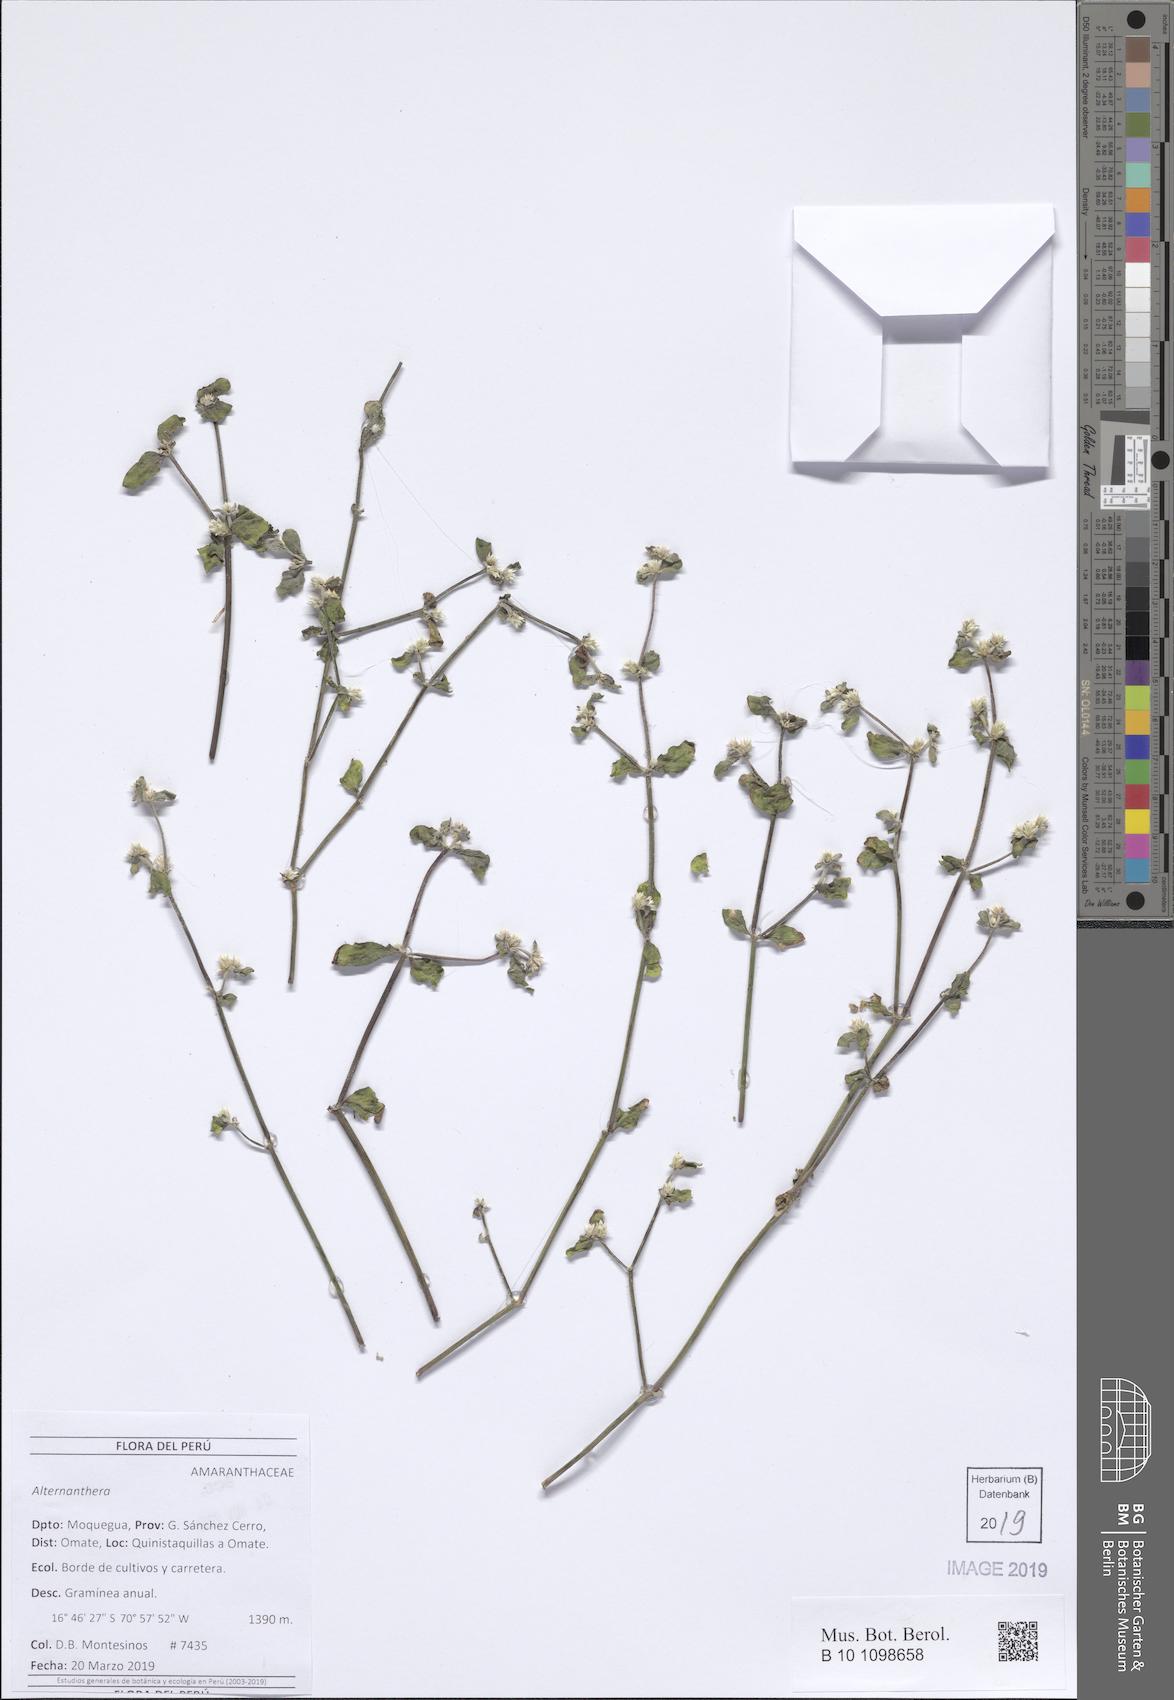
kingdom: Plantae
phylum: Tracheophyta
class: Magnoliopsida
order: Caryophyllales
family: Amaranthaceae
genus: Alternanthera
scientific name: Alternanthera
